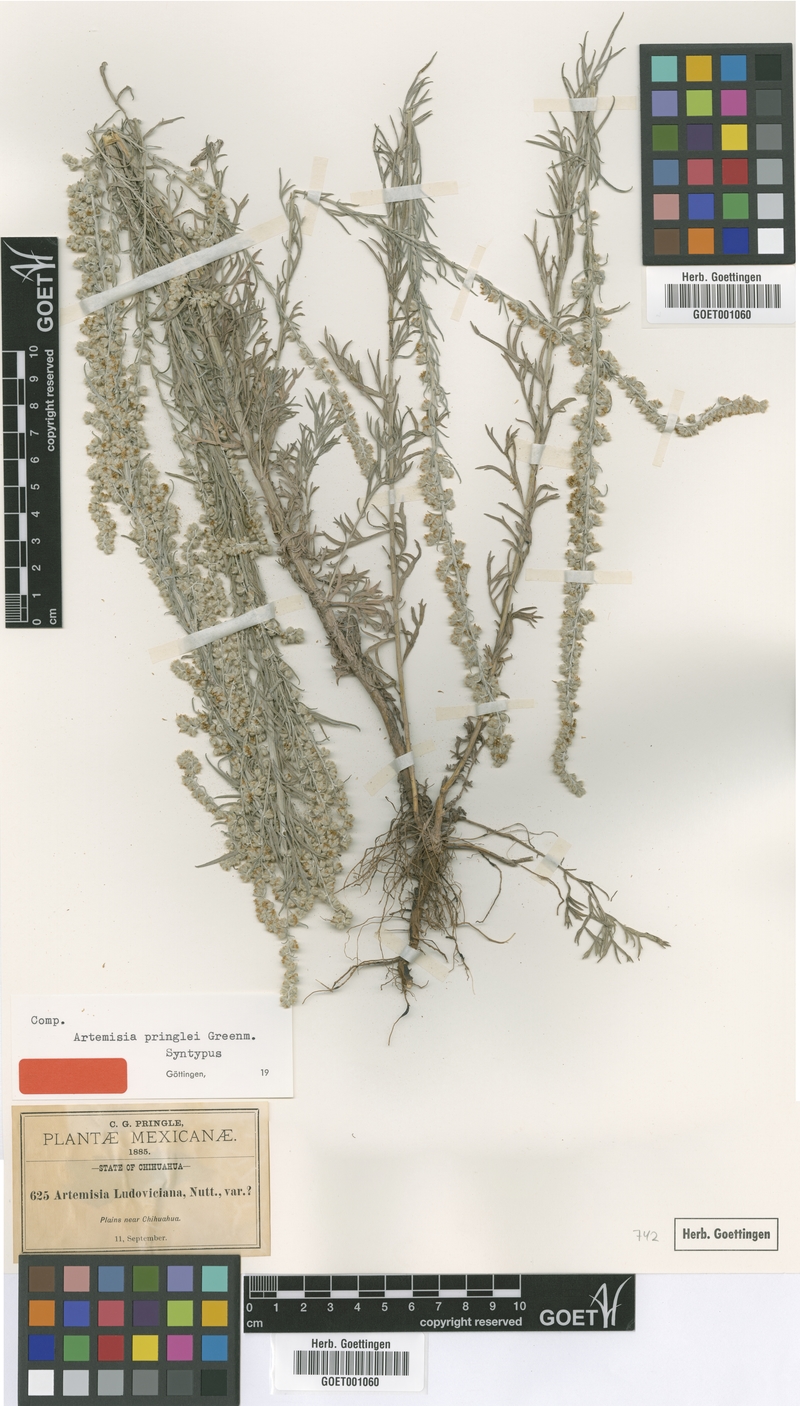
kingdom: Plantae
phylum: Tracheophyta
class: Magnoliopsida
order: Asterales
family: Asteraceae
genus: Artemisia
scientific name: Artemisia pringlei
